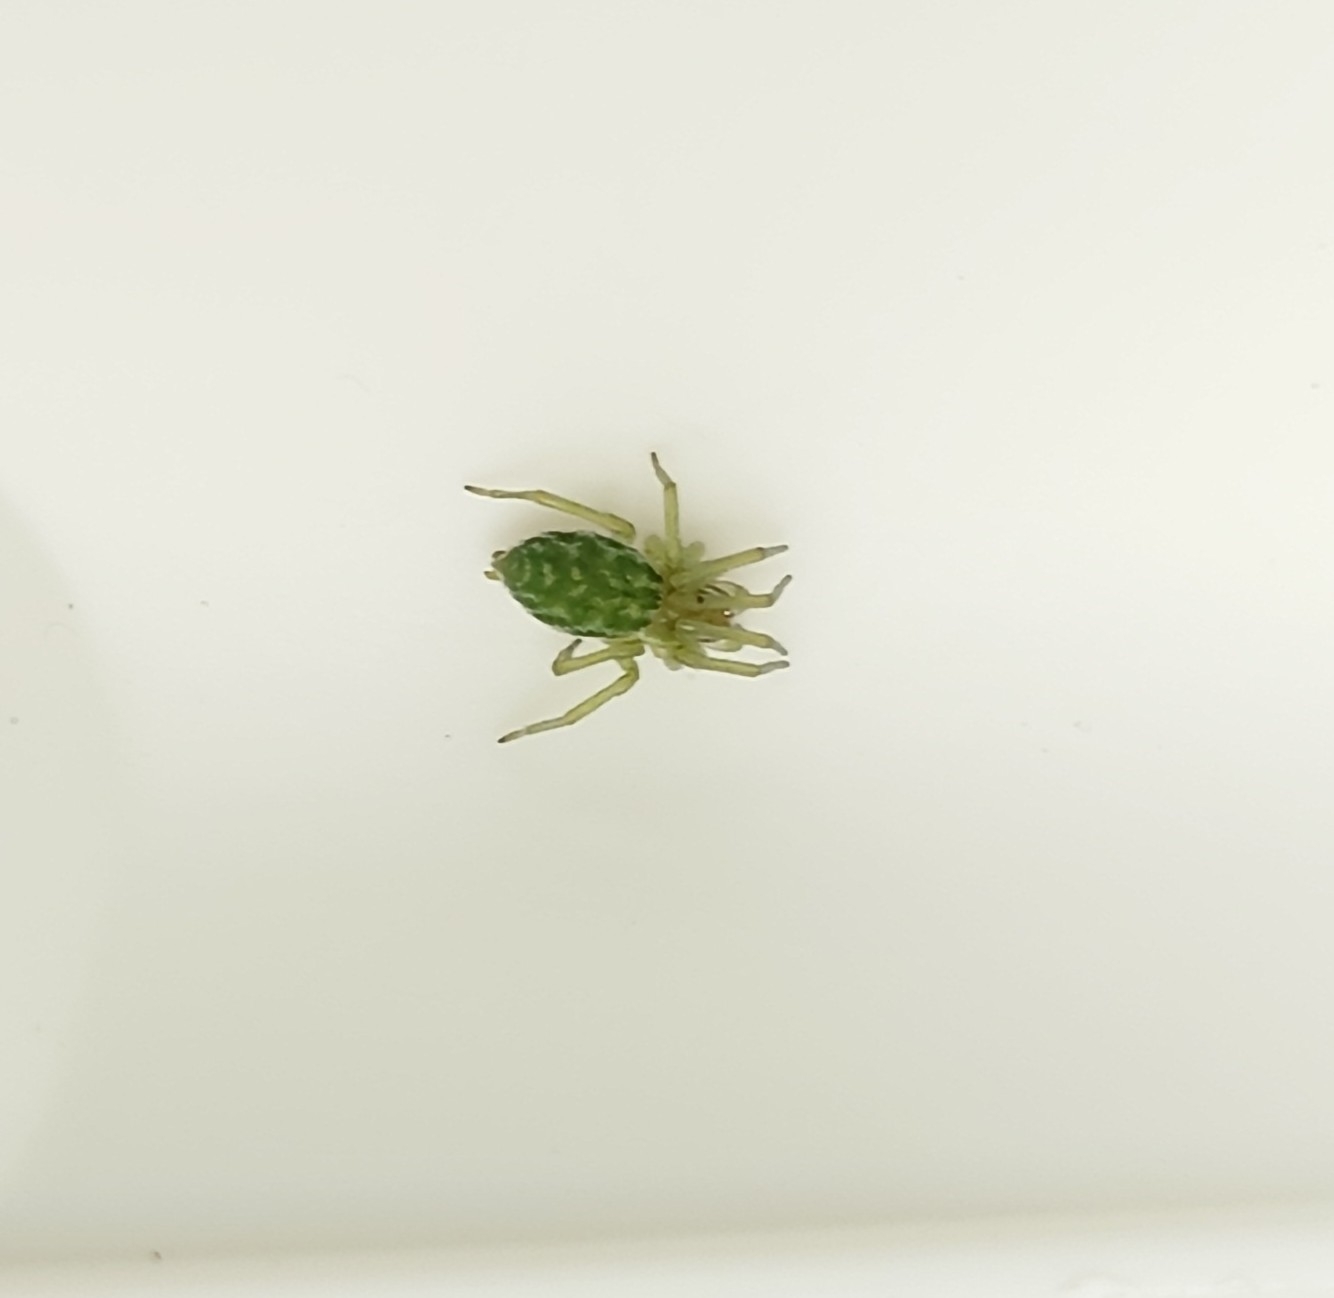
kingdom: Animalia
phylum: Arthropoda
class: Arachnida
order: Araneae
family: Dictynidae
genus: Nigma
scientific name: Nigma walckenaeri
